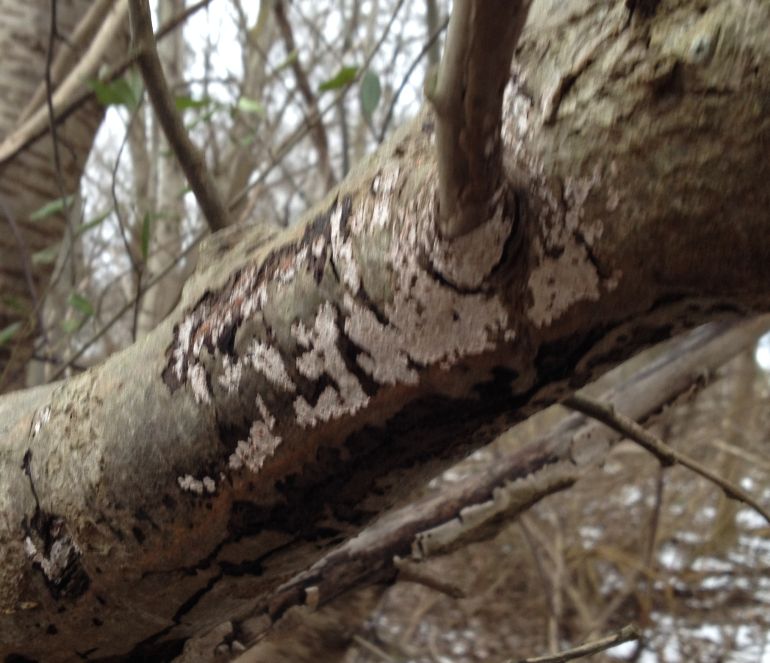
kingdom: Fungi
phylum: Basidiomycota
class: Agaricomycetes
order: Russulales
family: Peniophoraceae
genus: Peniophora
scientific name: Peniophora polygonia
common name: polygon-voksskind
